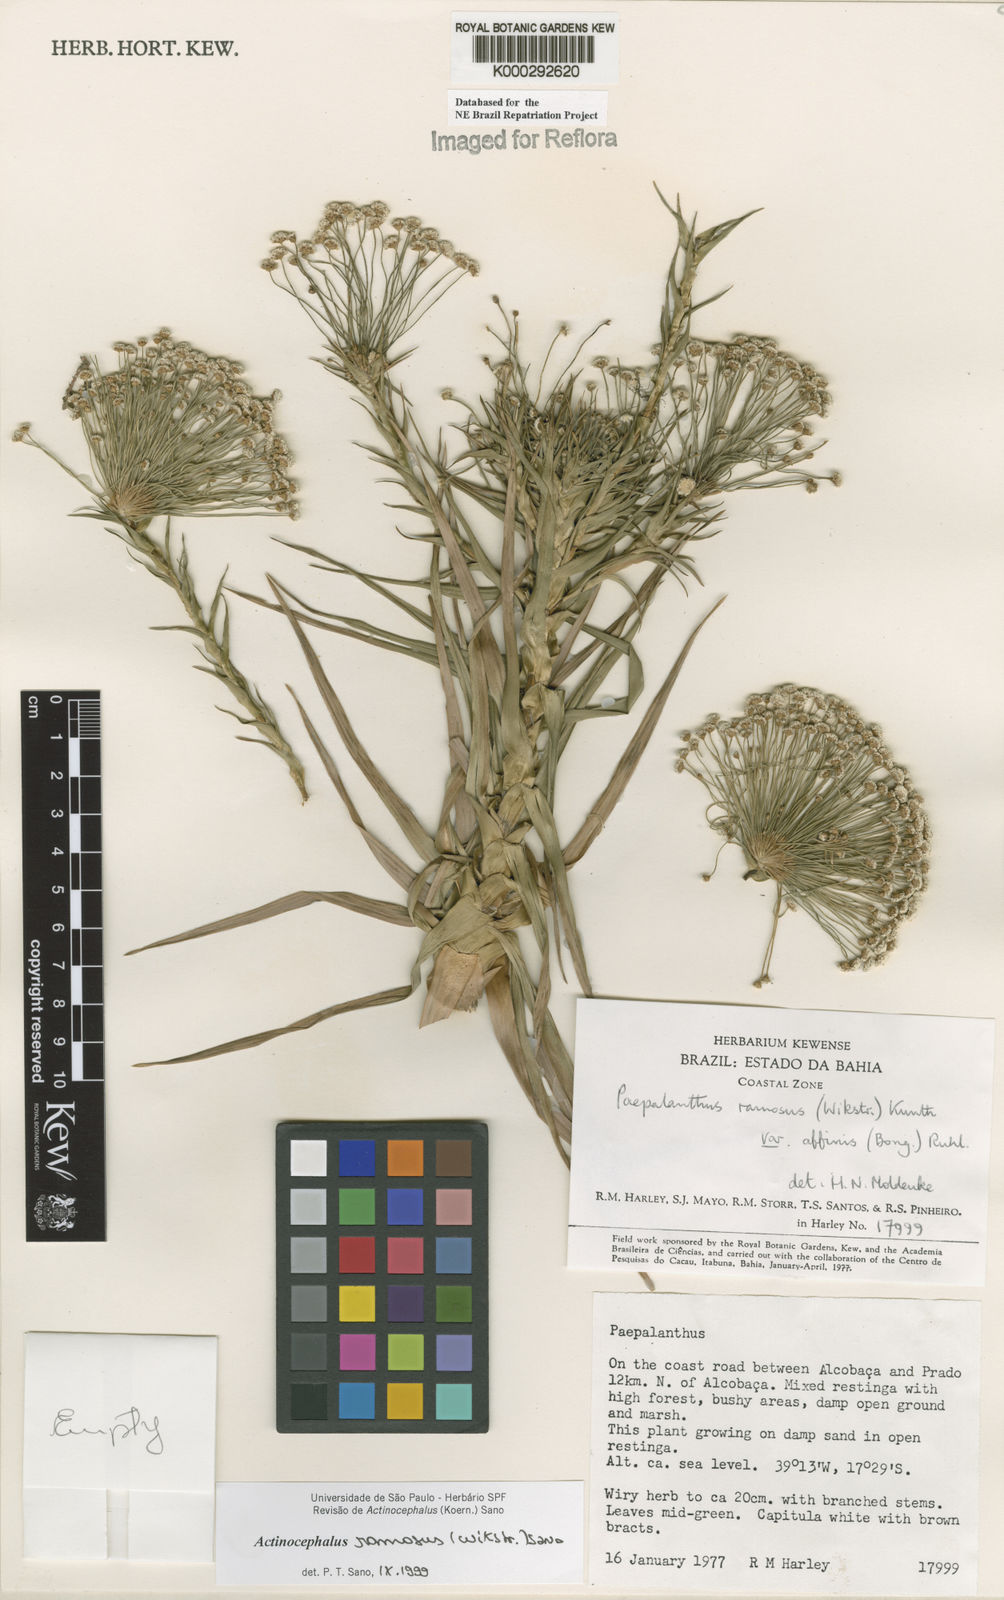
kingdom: Plantae
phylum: Tracheophyta
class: Liliopsida
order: Poales
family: Eriocaulaceae
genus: Paepalanthus
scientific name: Paepalanthus ramosus
